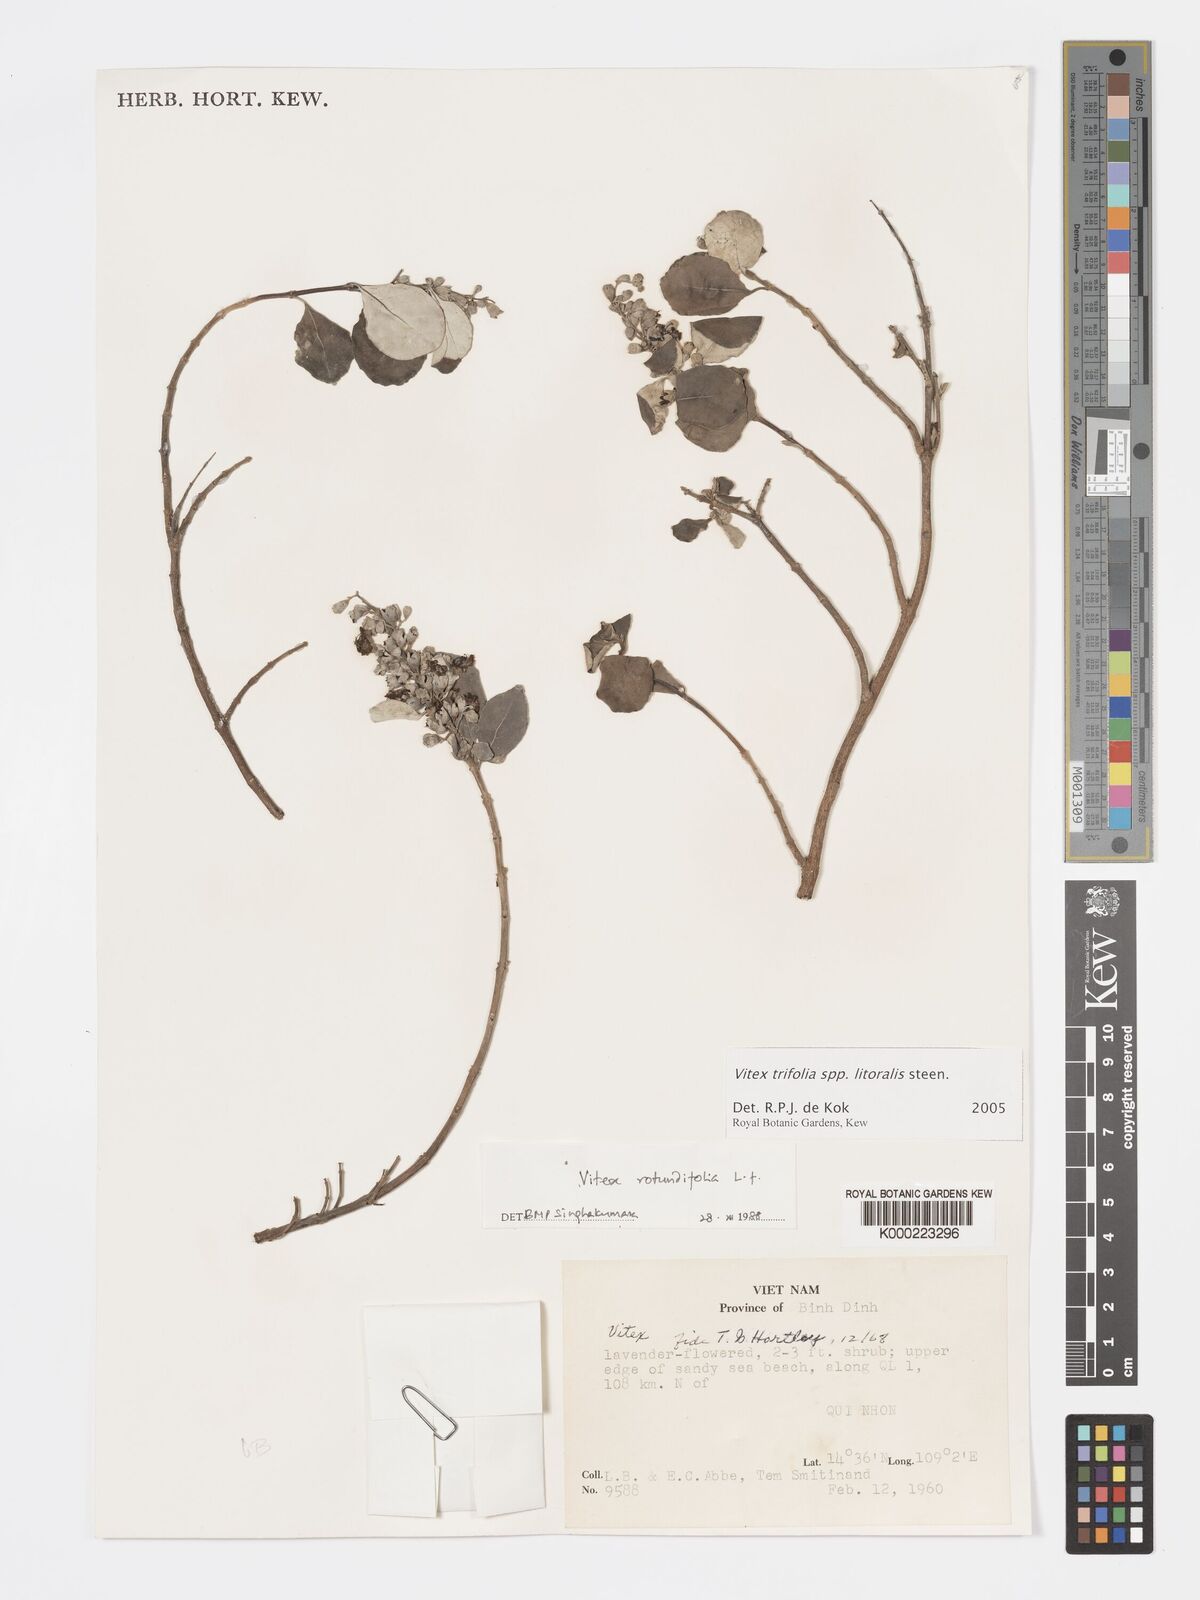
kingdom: Plantae
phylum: Tracheophyta
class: Magnoliopsida
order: Lamiales
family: Lamiaceae
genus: Vitex
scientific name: Vitex rotundifolia
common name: Beach vitex
